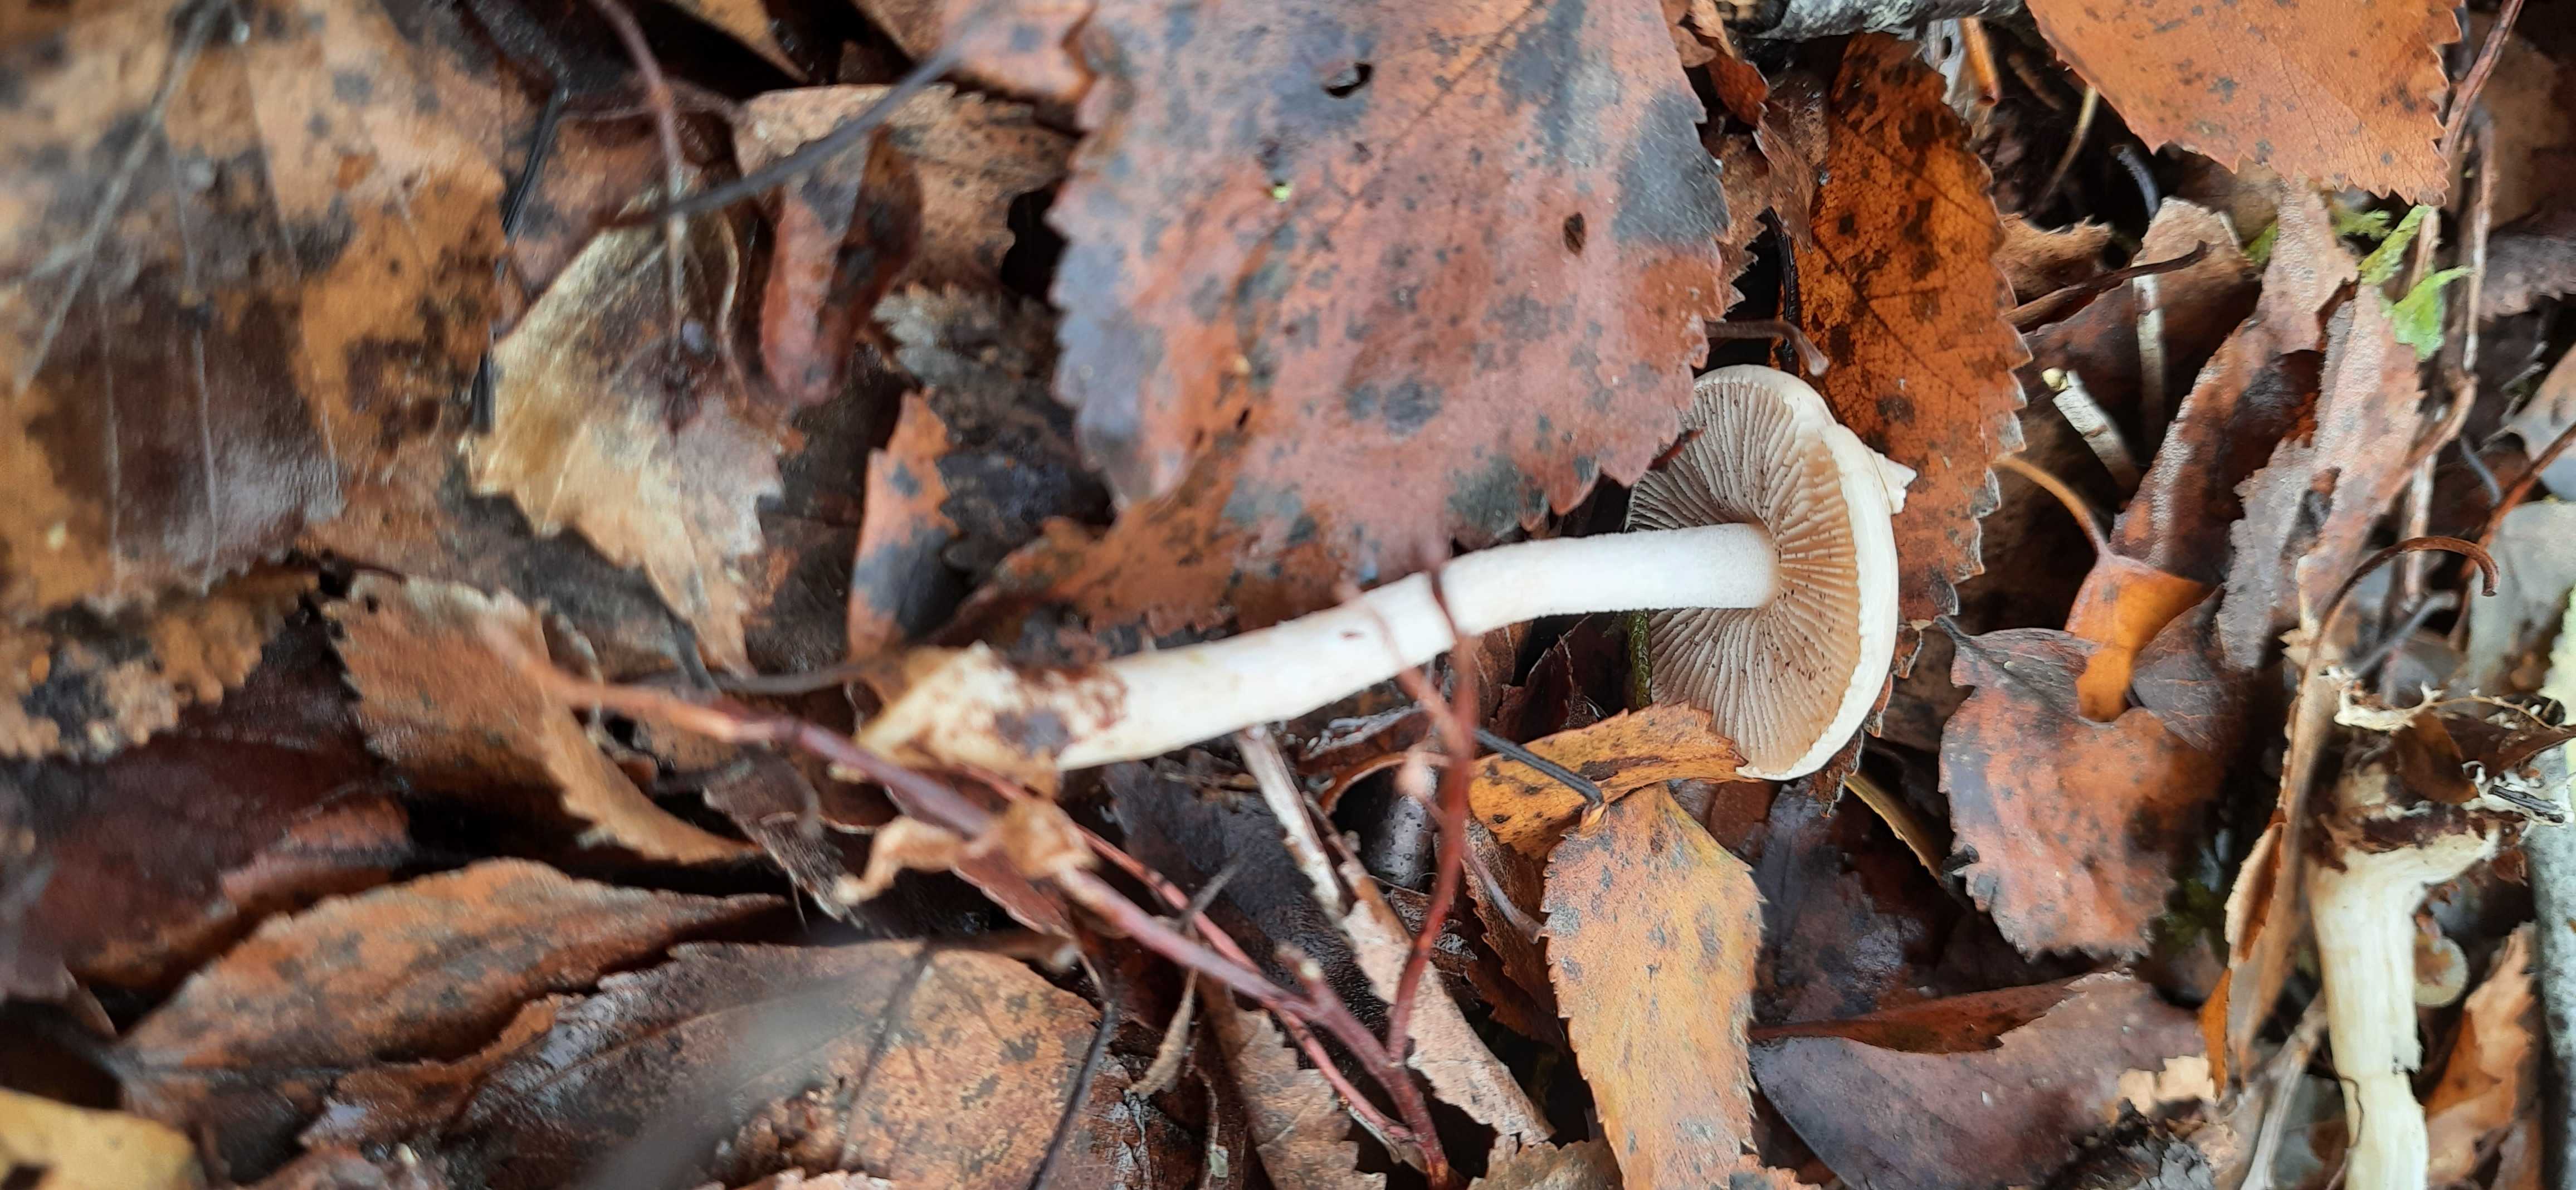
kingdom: Fungi
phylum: Basidiomycota
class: Agaricomycetes
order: Agaricales
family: Hymenogastraceae
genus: Hebeloma
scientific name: Hebeloma
